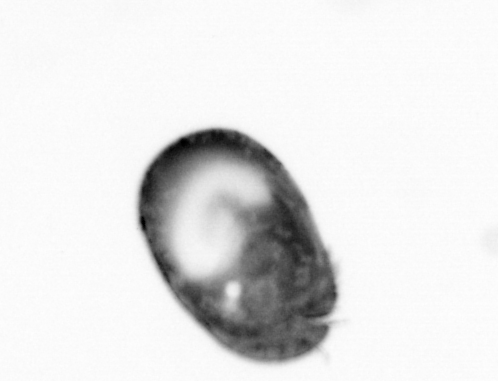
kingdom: Animalia
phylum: Arthropoda
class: Copepoda
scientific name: Copepoda
